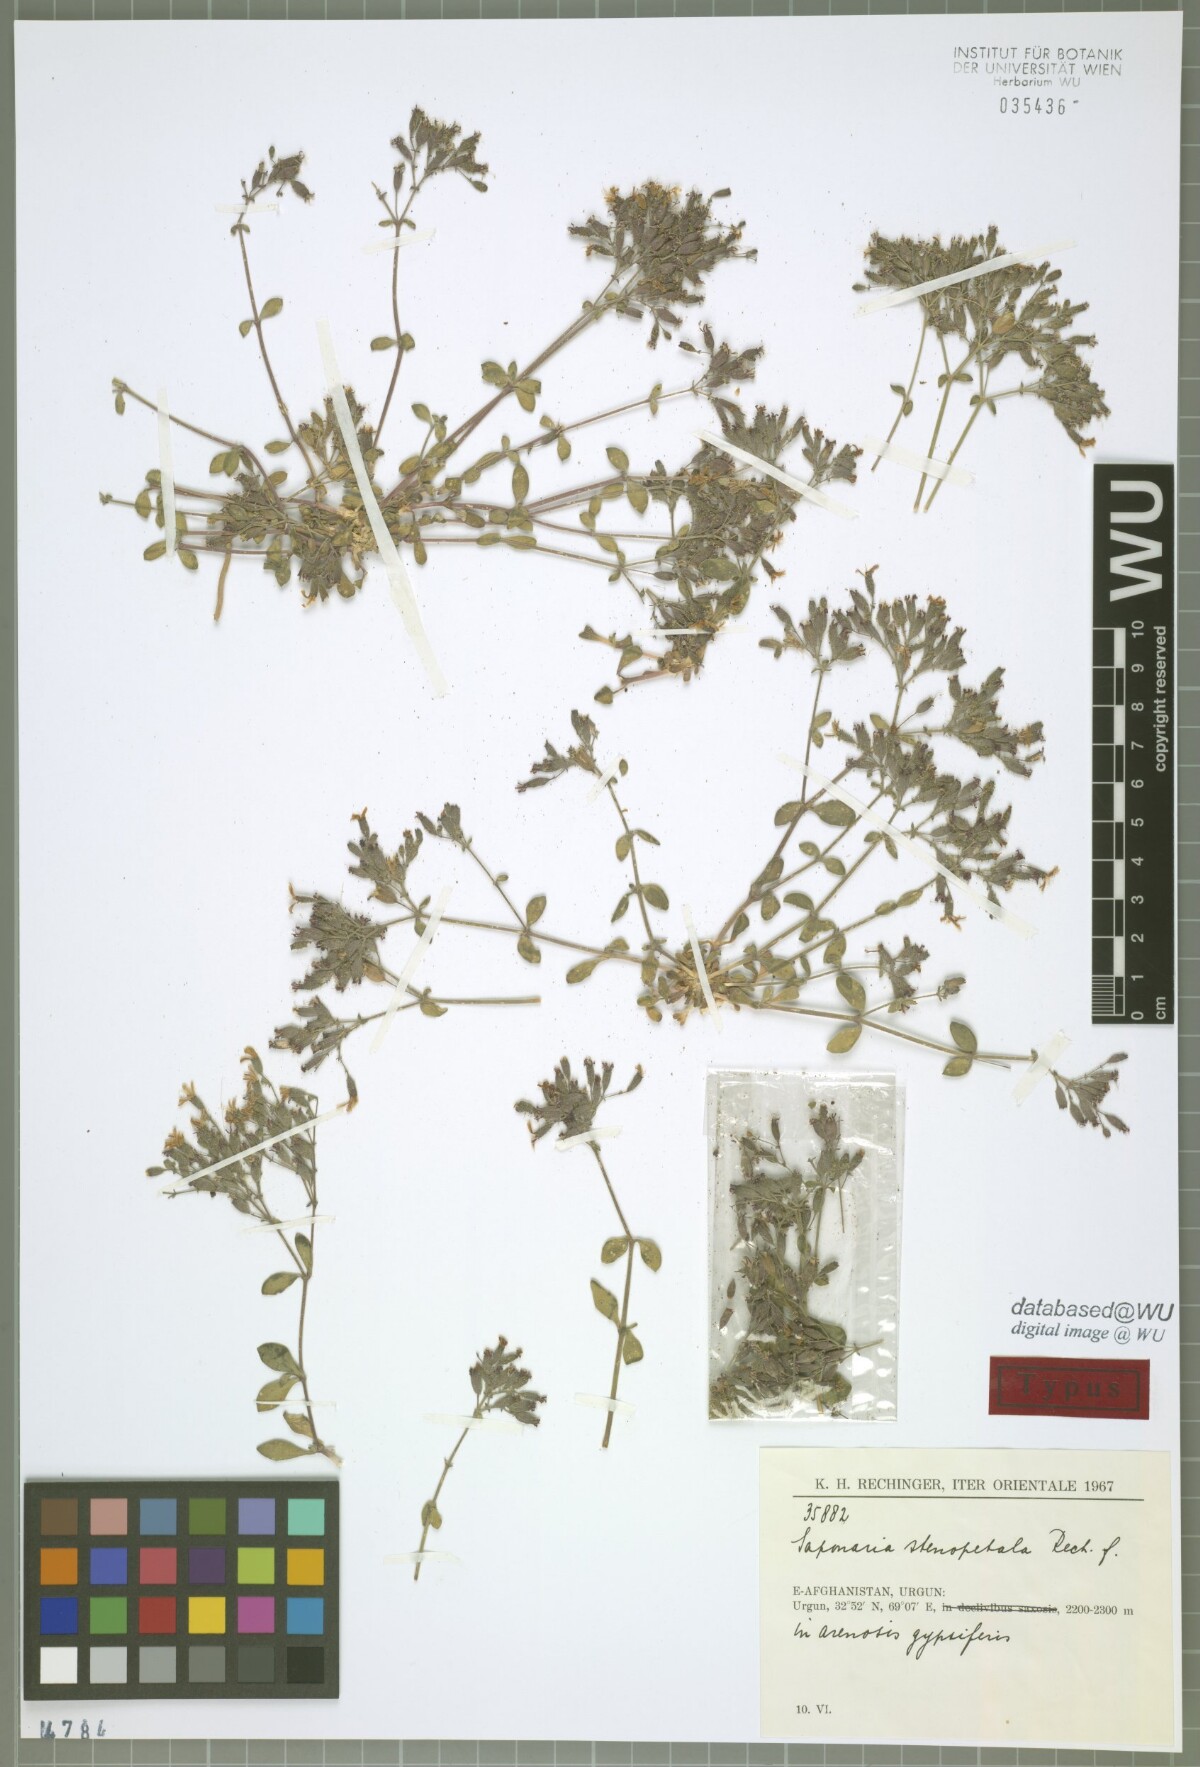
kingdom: Plantae
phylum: Tracheophyta
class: Magnoliopsida
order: Caryophyllales
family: Caryophyllaceae
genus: Saponaria
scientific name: Saponaria stenopetala
